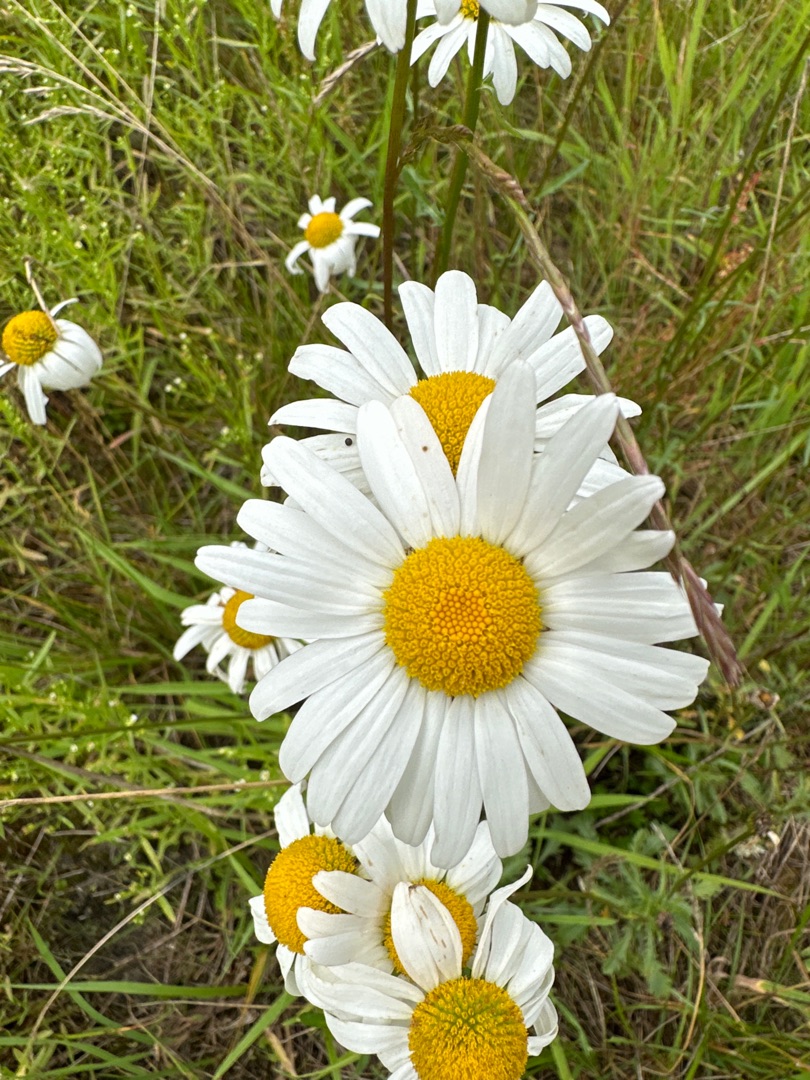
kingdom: Plantae
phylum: Tracheophyta
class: Magnoliopsida
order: Asterales
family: Asteraceae
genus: Leucanthemum
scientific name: Leucanthemum vulgare
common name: Hvid okseøje
